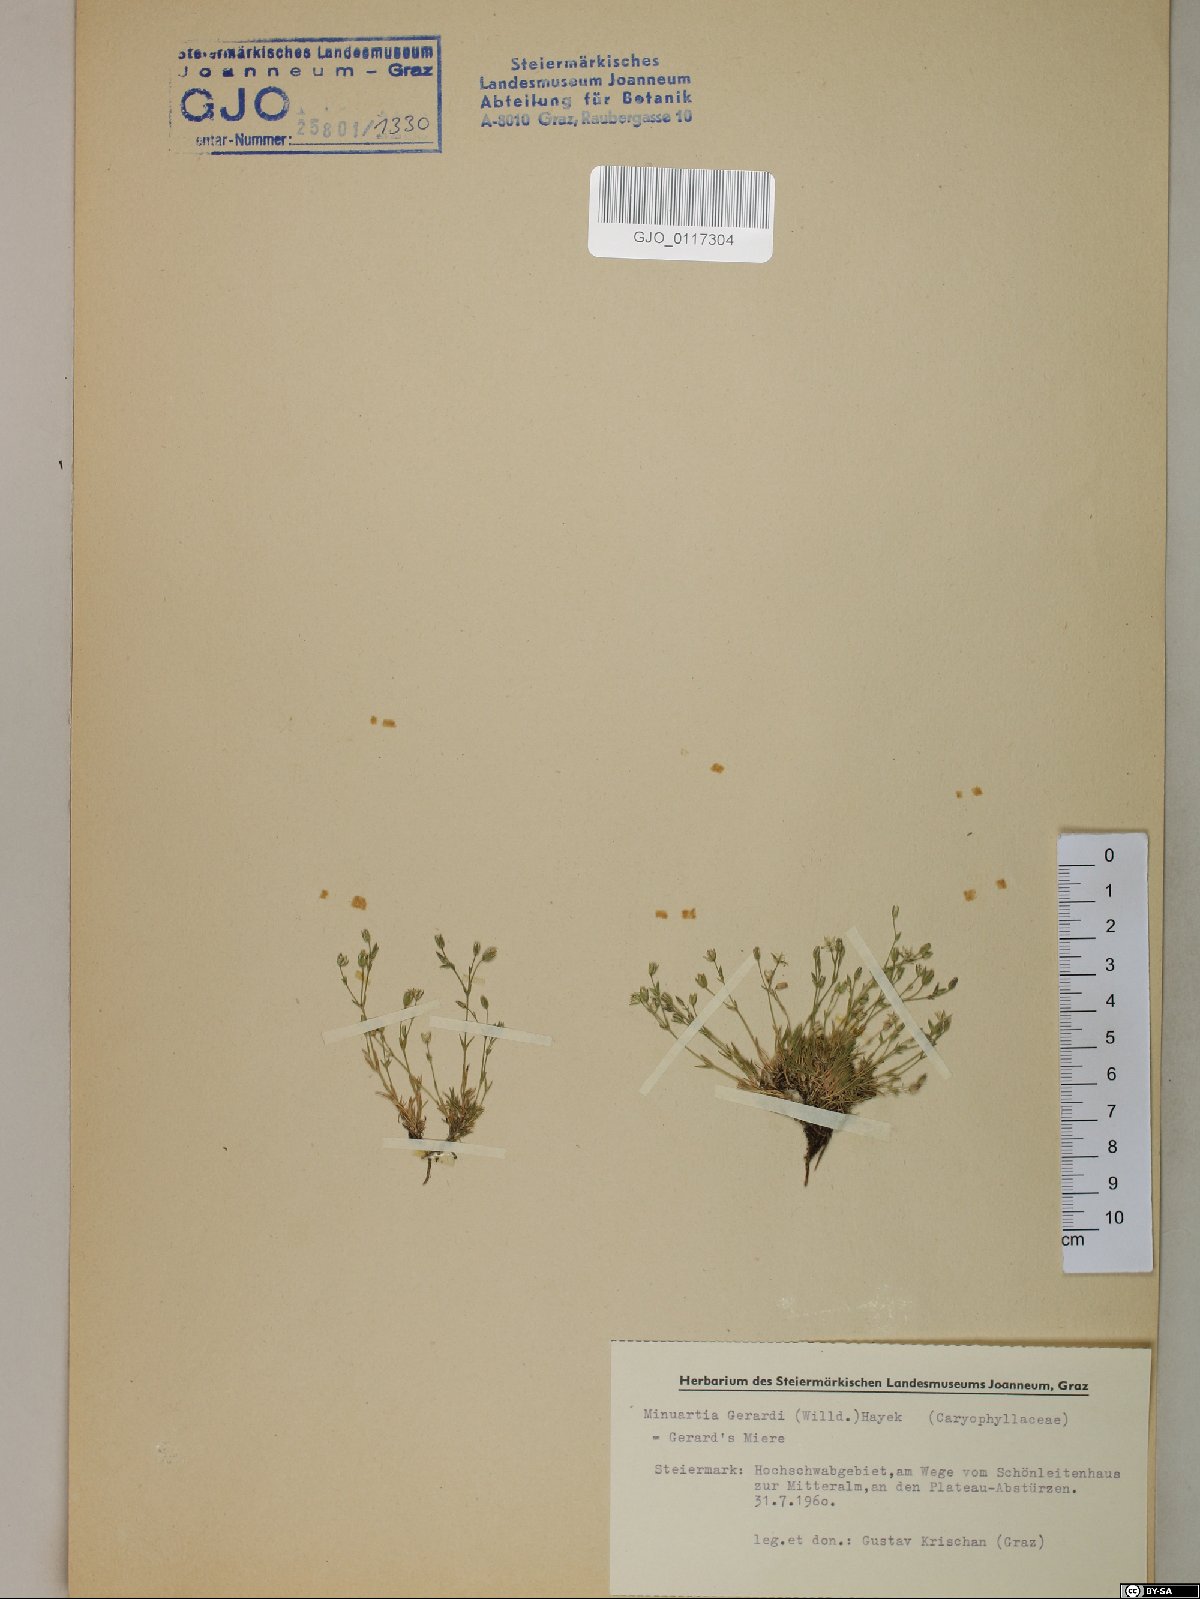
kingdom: Plantae
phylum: Tracheophyta
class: Magnoliopsida
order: Caryophyllales
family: Caryophyllaceae
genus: Sabulina
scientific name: Sabulina verna
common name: Spring sandwort
